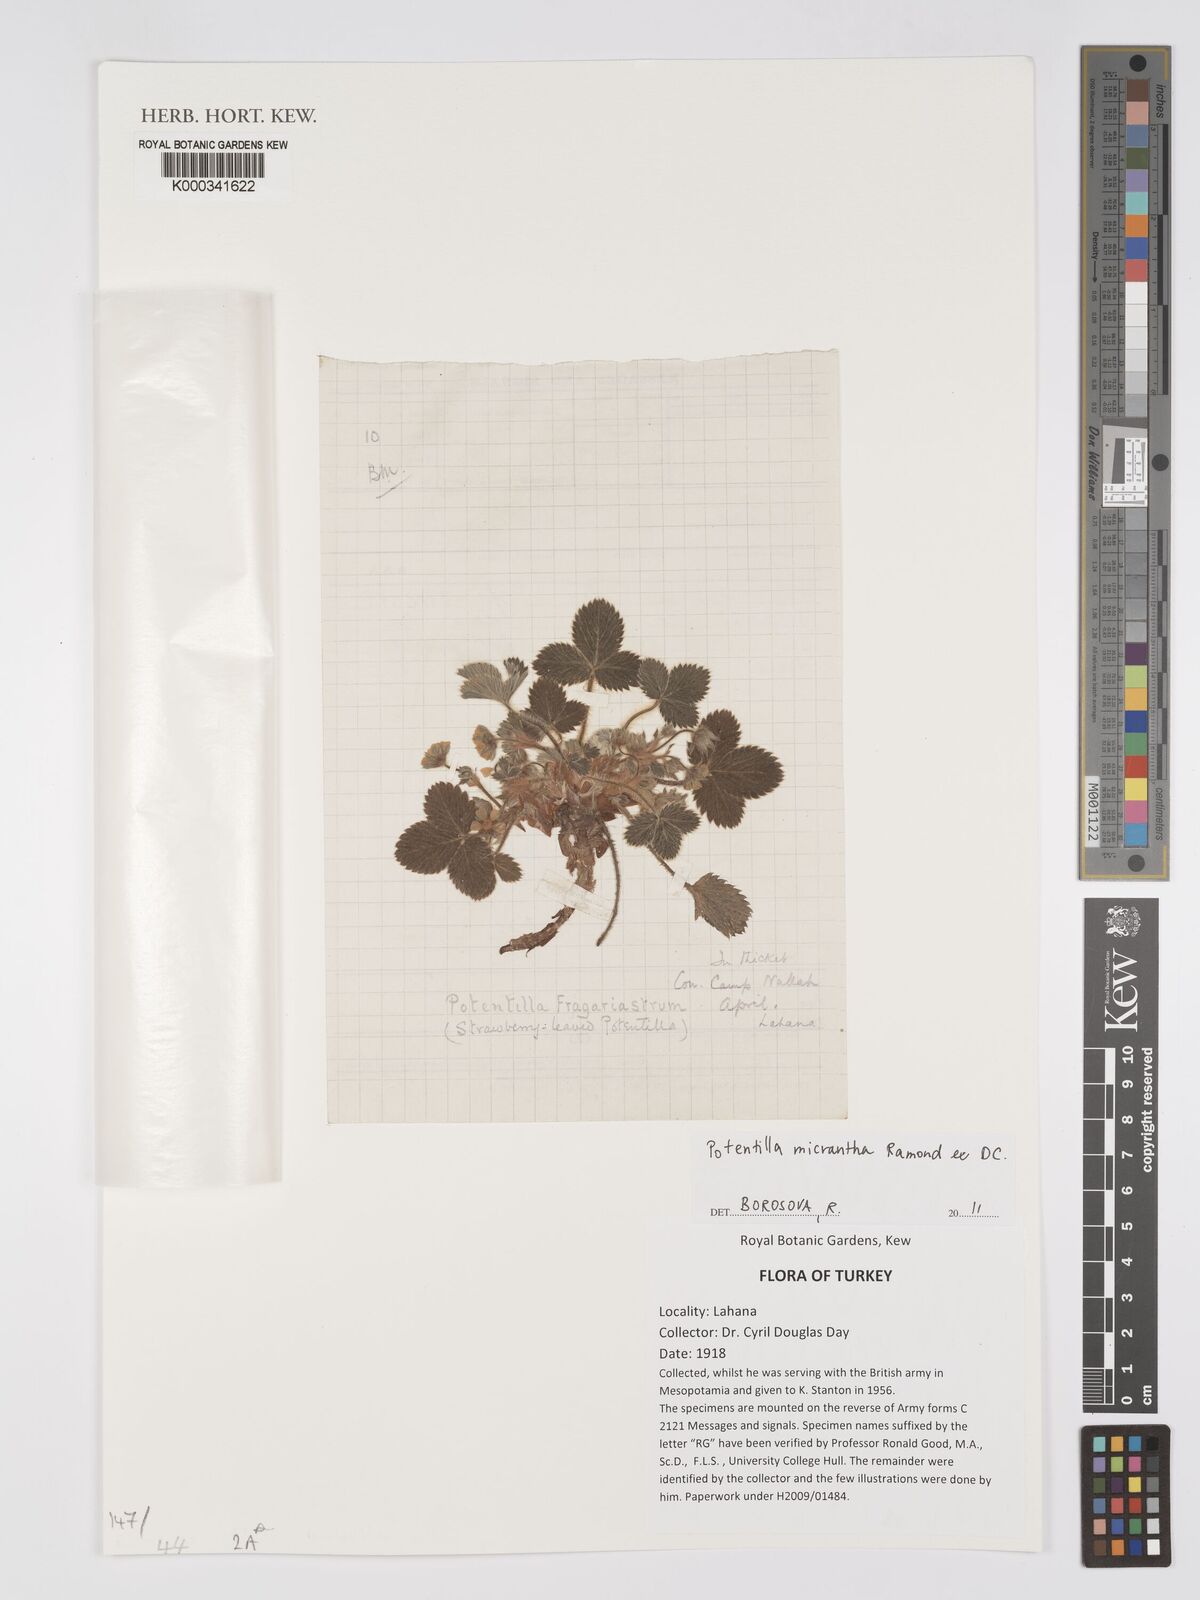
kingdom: Plantae
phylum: Tracheophyta
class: Magnoliopsida
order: Rosales
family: Rosaceae
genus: Potentilla
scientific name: Potentilla micrantha
